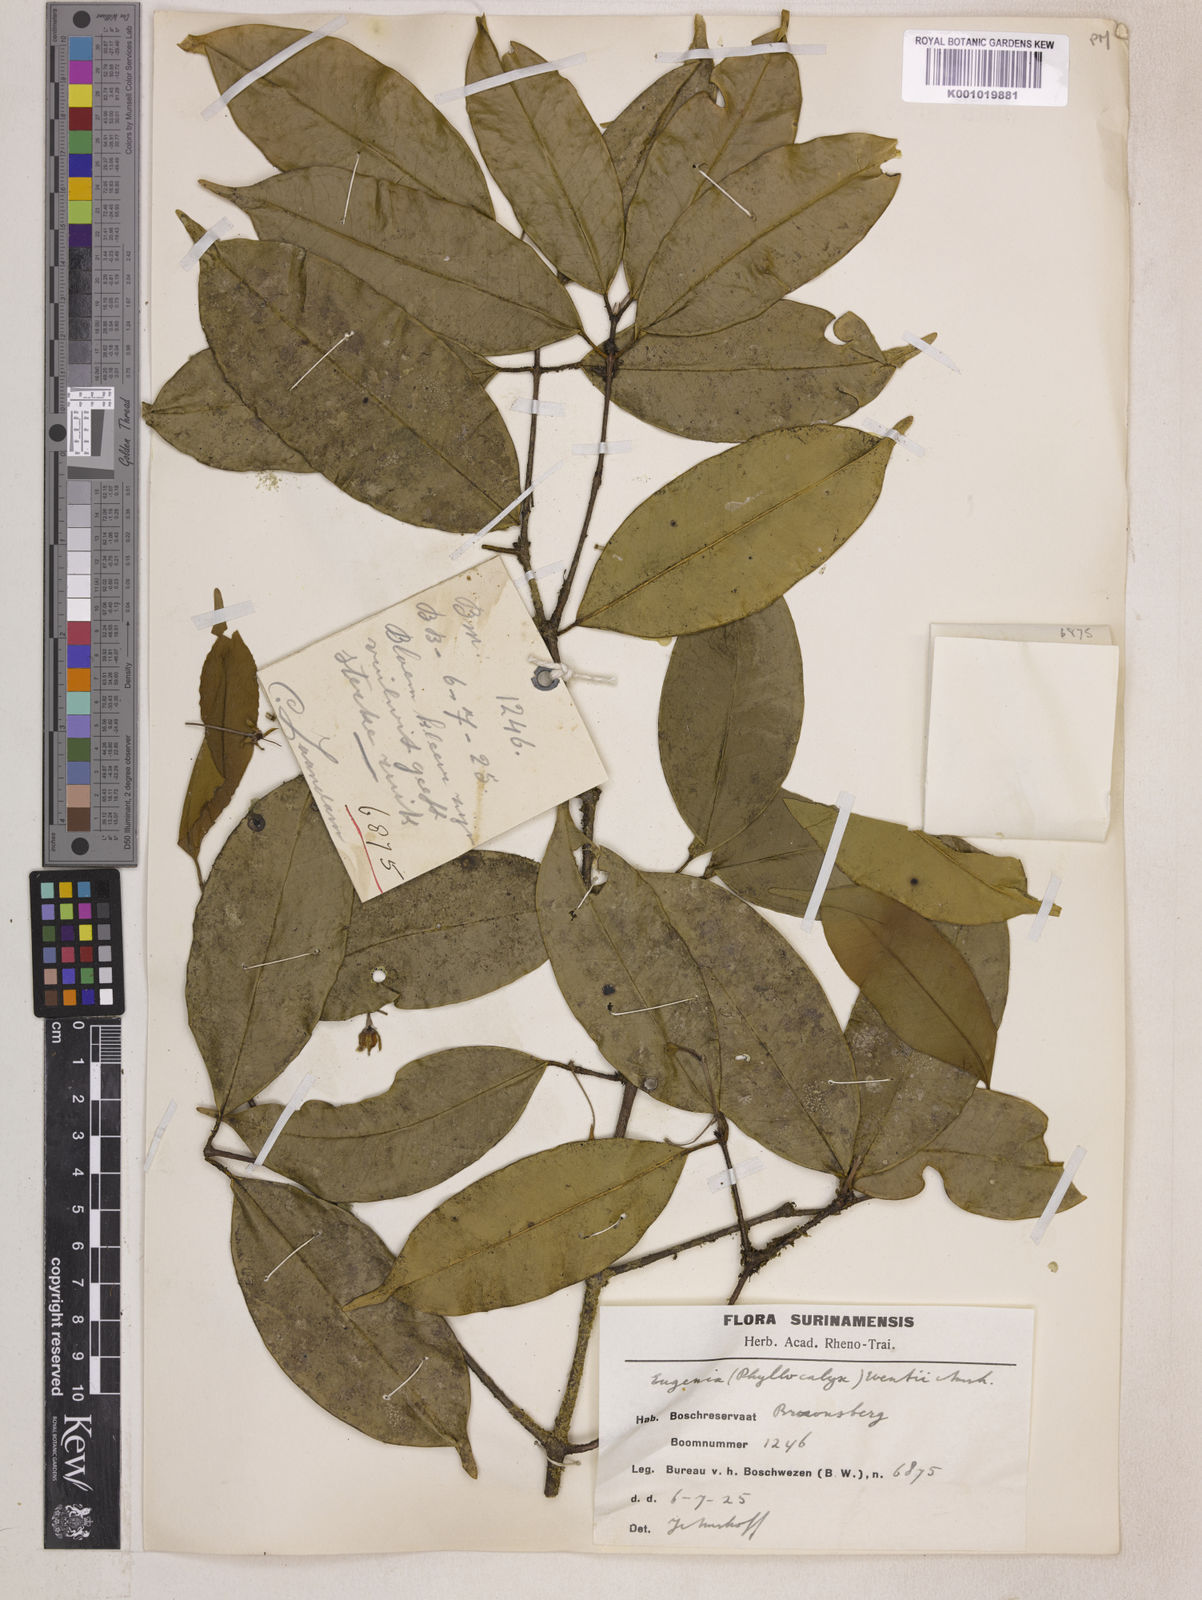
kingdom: Plantae
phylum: Tracheophyta
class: Magnoliopsida
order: Myrtales
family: Myrtaceae
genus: Eugenia
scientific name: Eugenia wentii
